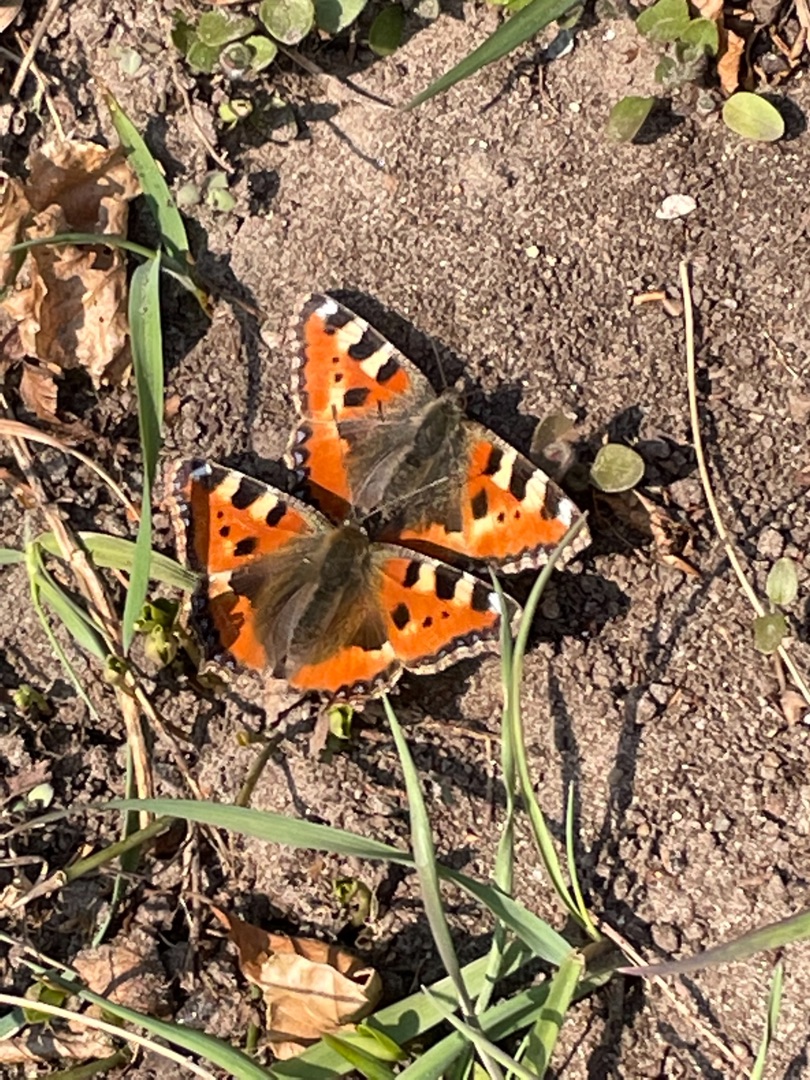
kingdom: Animalia
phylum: Arthropoda
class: Insecta
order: Lepidoptera
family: Nymphalidae
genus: Aglais
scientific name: Aglais urticae
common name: Nældens takvinge
